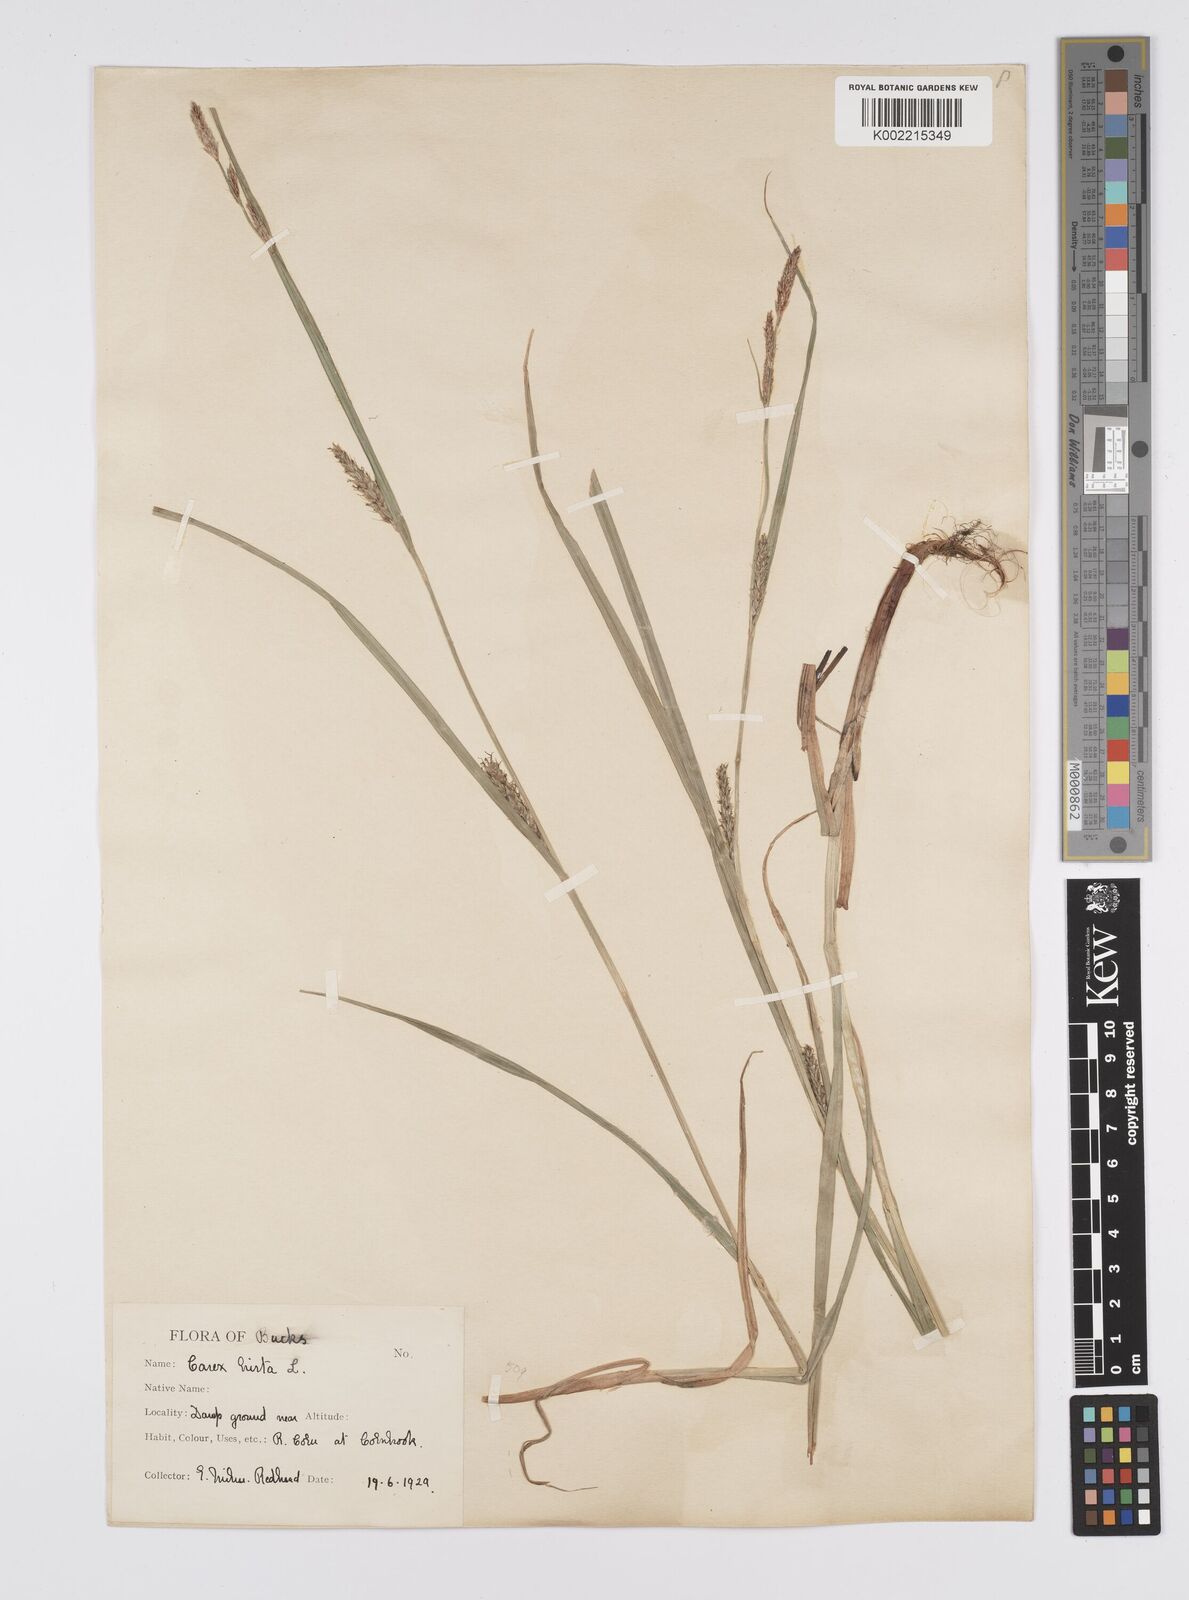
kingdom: Plantae
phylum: Tracheophyta
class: Liliopsida
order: Poales
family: Cyperaceae
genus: Carex
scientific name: Carex hirta
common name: Hairy sedge
